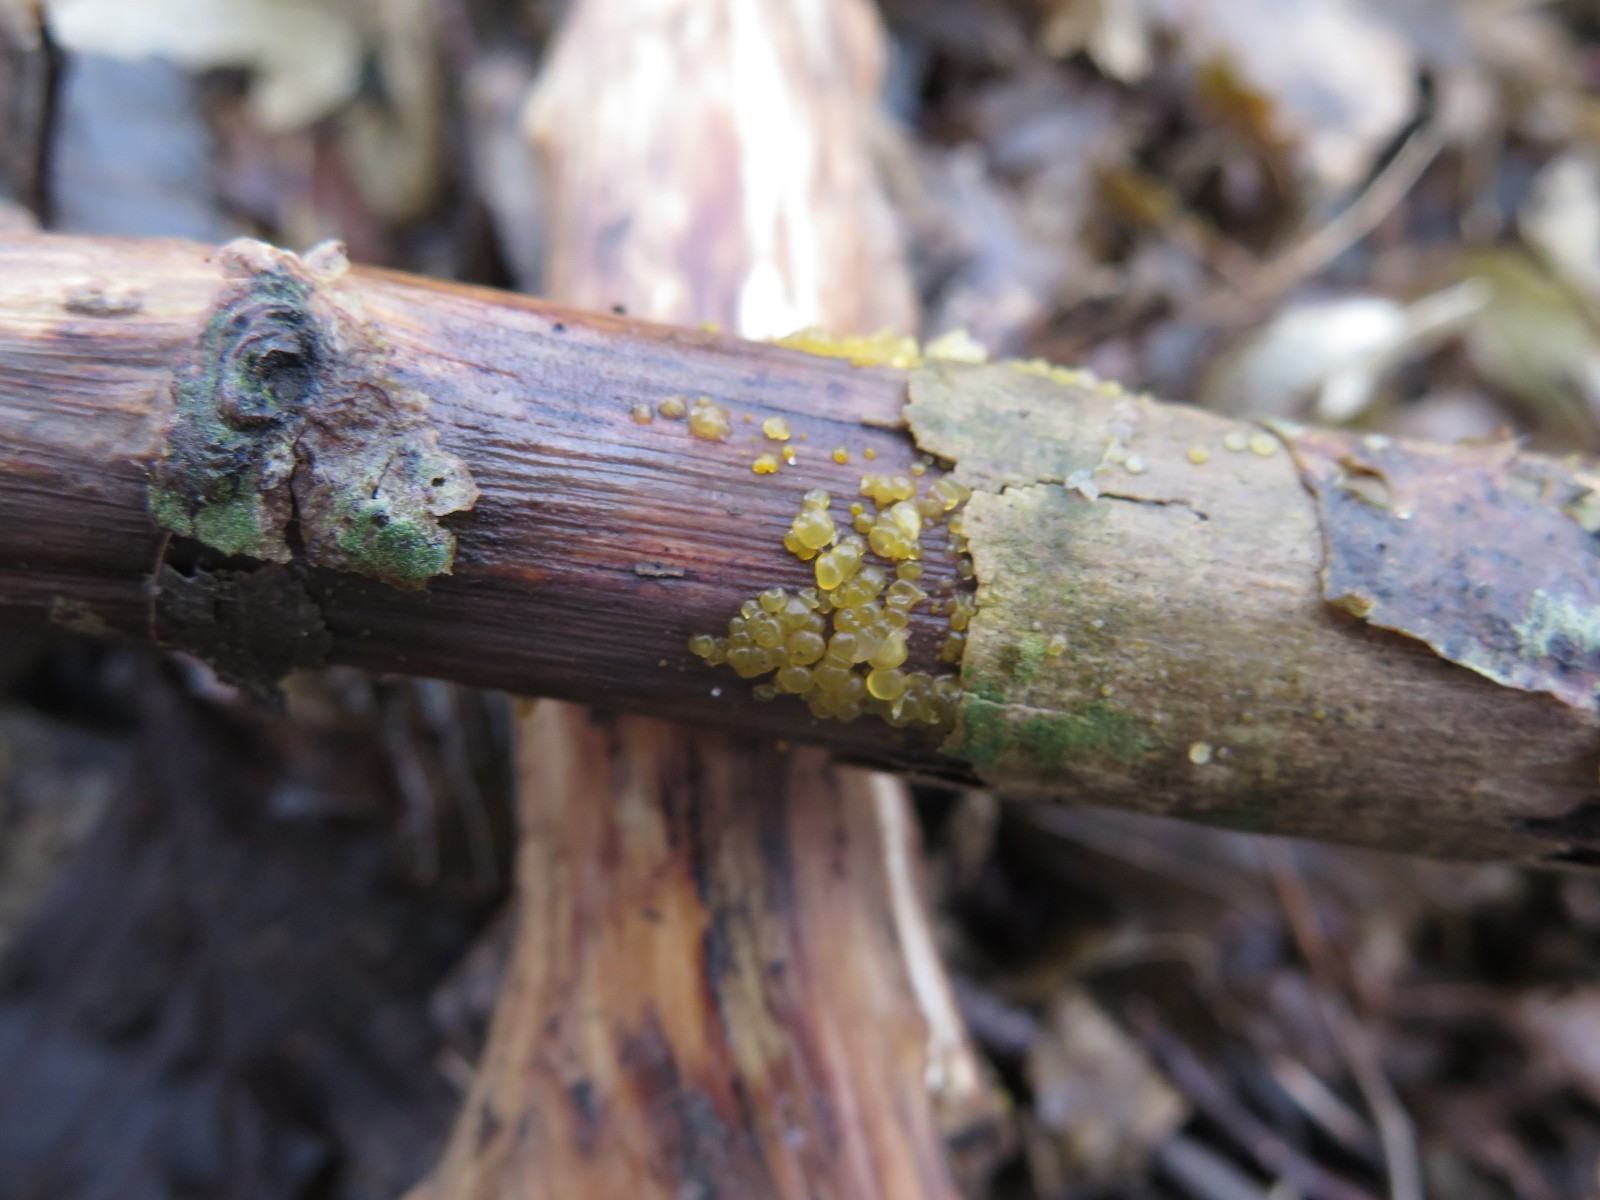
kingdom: Fungi
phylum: Basidiomycota
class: Dacrymycetes
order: Dacrymycetales
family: Dacrymycetaceae
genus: Dacrymyces
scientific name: Dacrymyces stillatus
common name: almindelig tåresvamp
